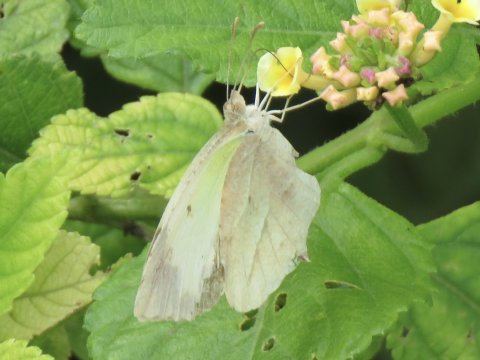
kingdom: Animalia
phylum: Arthropoda
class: Insecta
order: Lepidoptera
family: Pieridae
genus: Eurema
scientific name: Eurema mexicana
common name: Mexican Yellow
